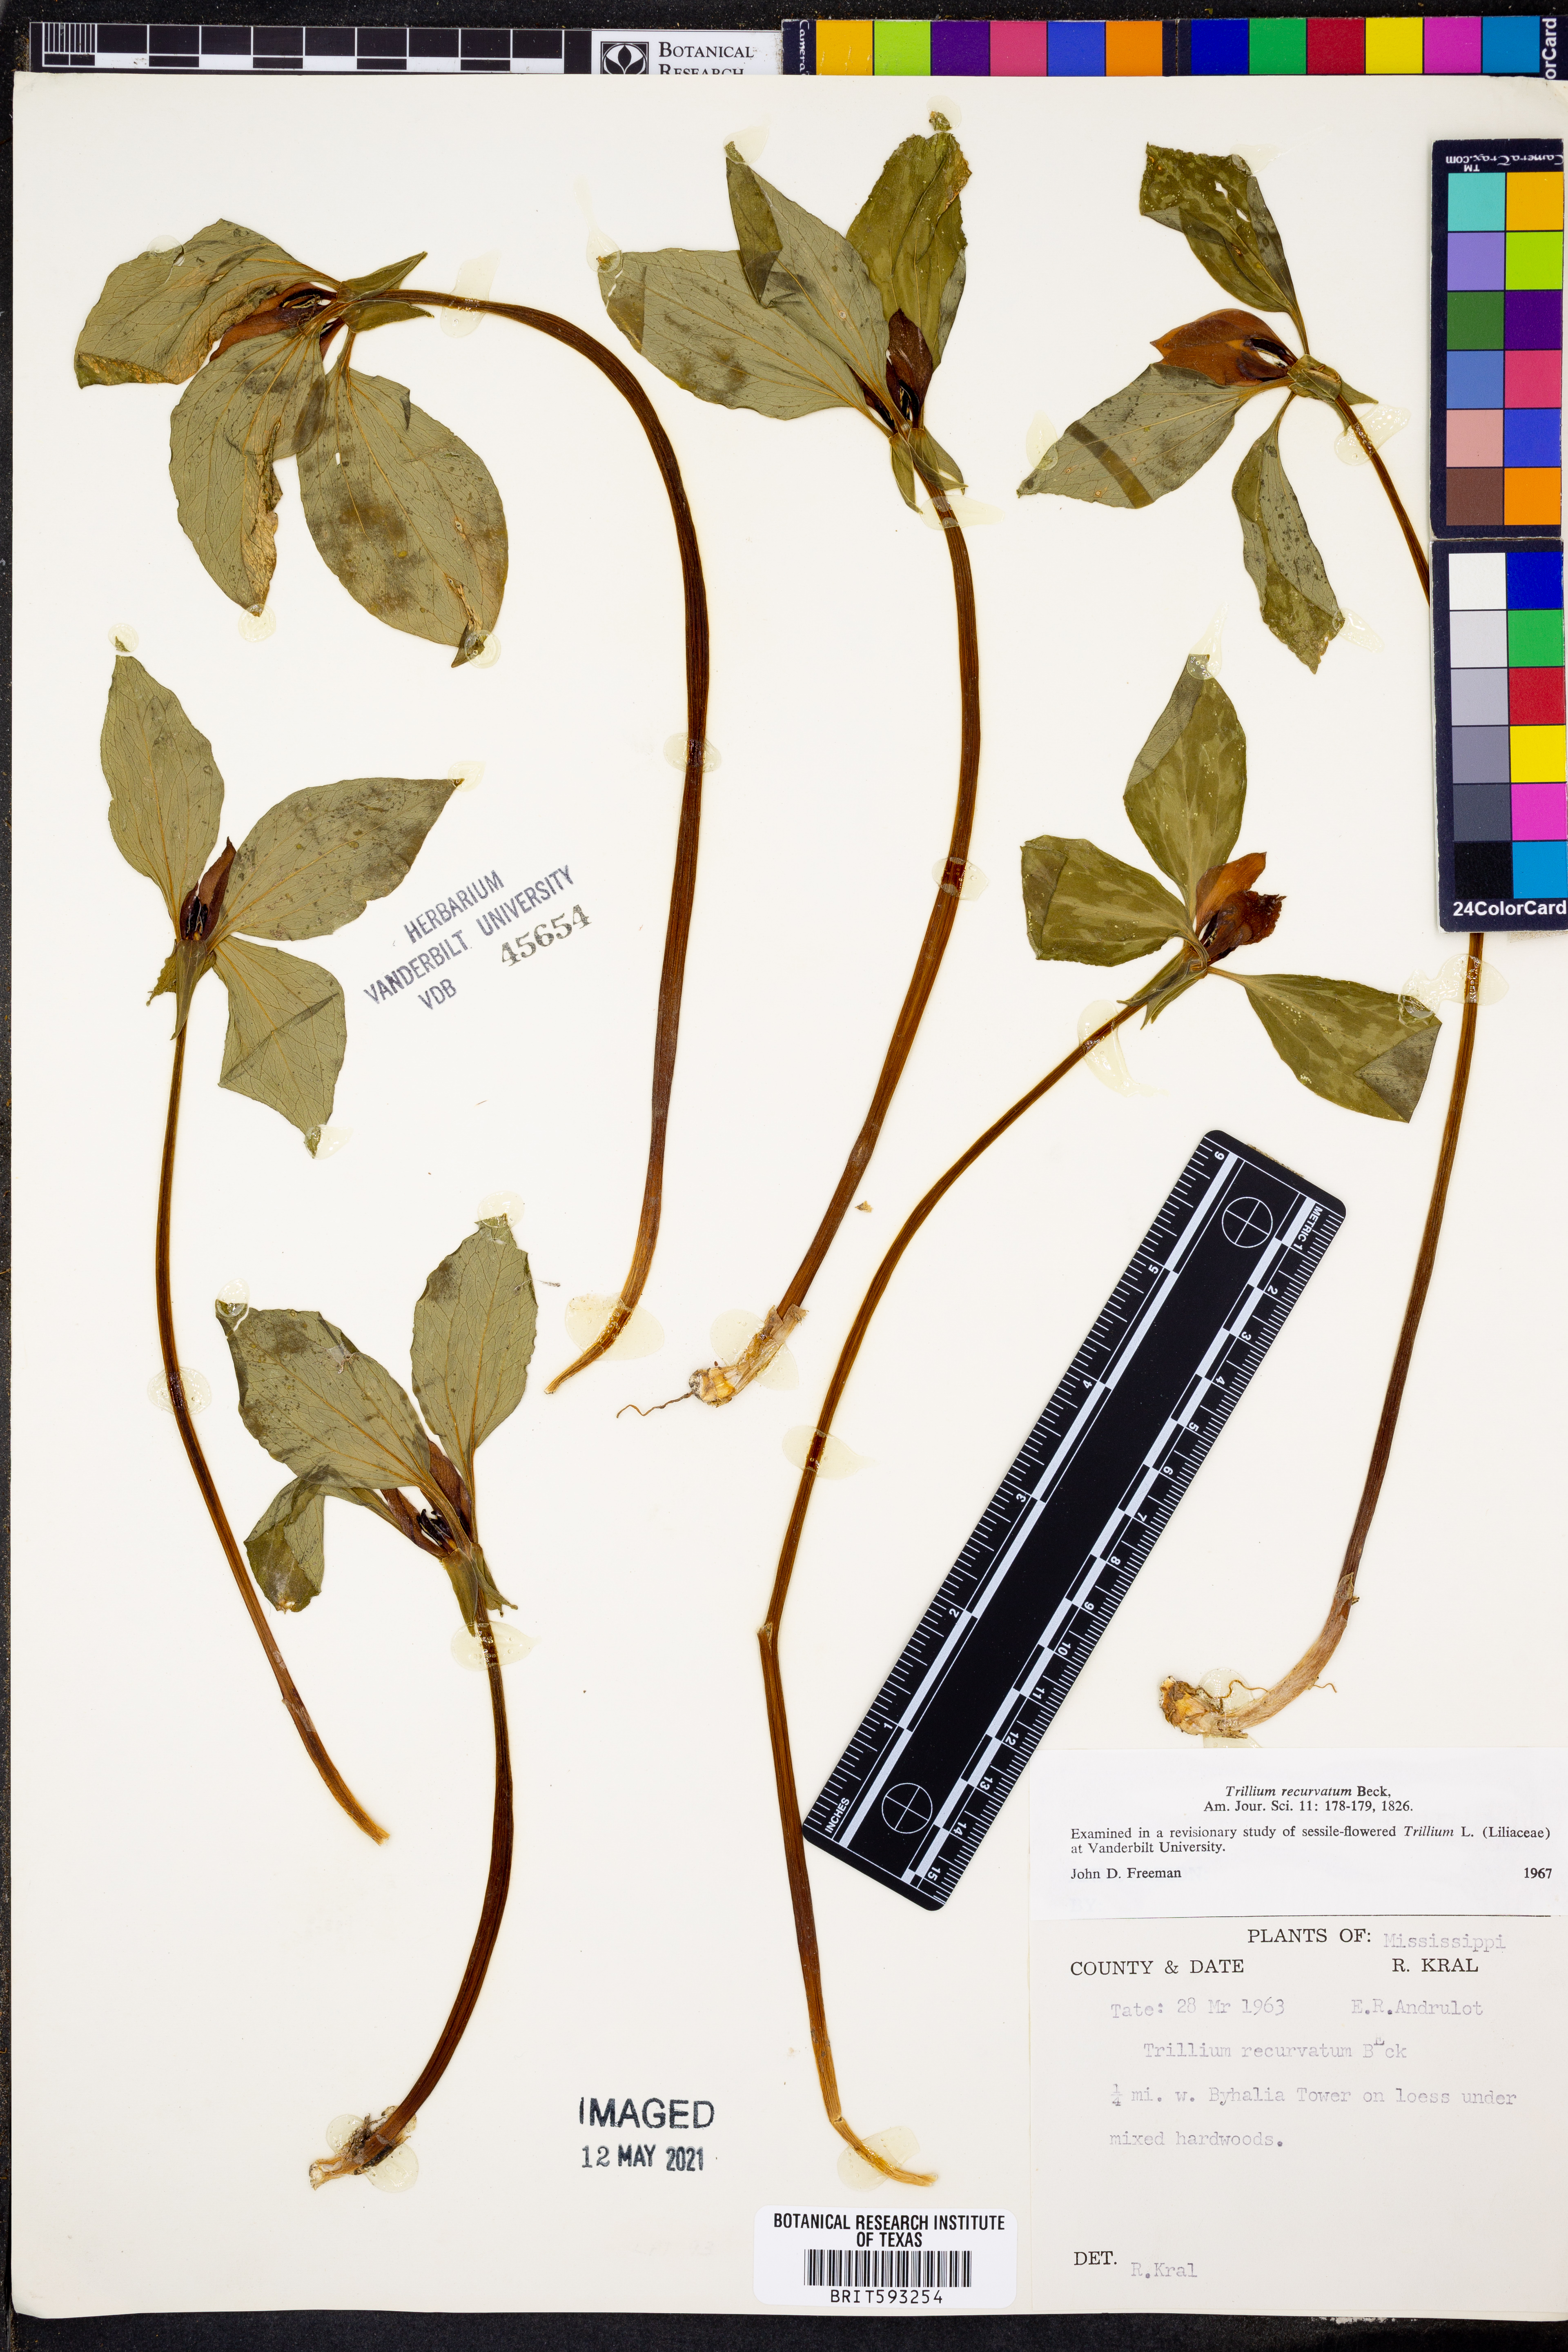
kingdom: Plantae
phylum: Tracheophyta
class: Liliopsida
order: Liliales
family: Melanthiaceae
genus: Trillium
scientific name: Trillium recurvatum
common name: Bloody butcher
